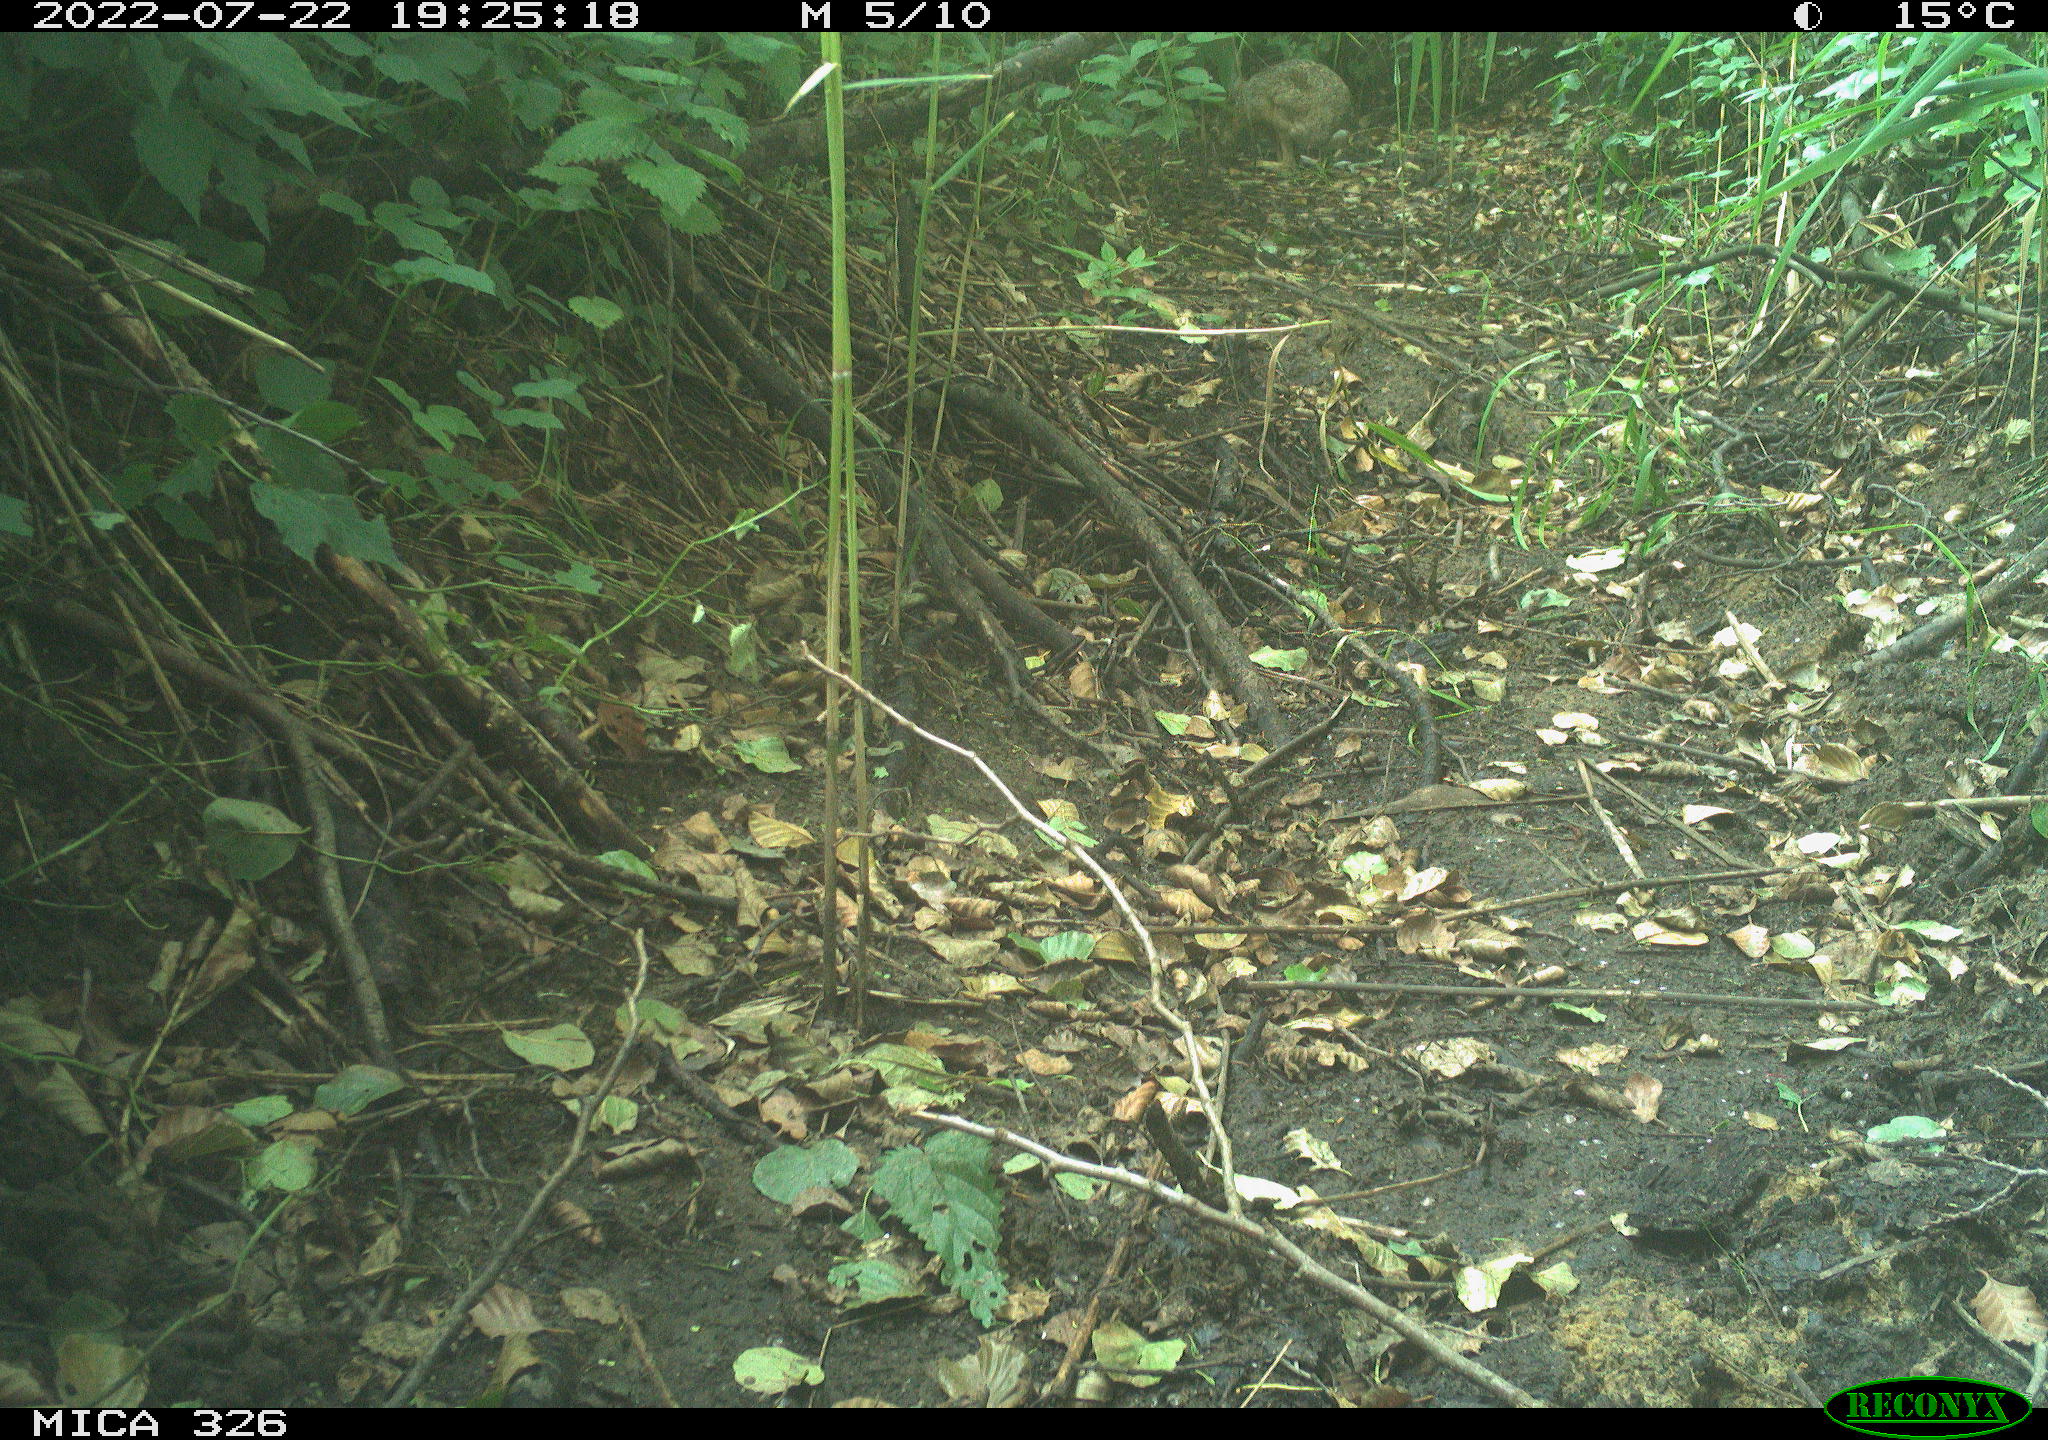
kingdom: Animalia
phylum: Chordata
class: Mammalia
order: Lagomorpha
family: Leporidae
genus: Lepus
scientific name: Lepus europaeus
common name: European hare
